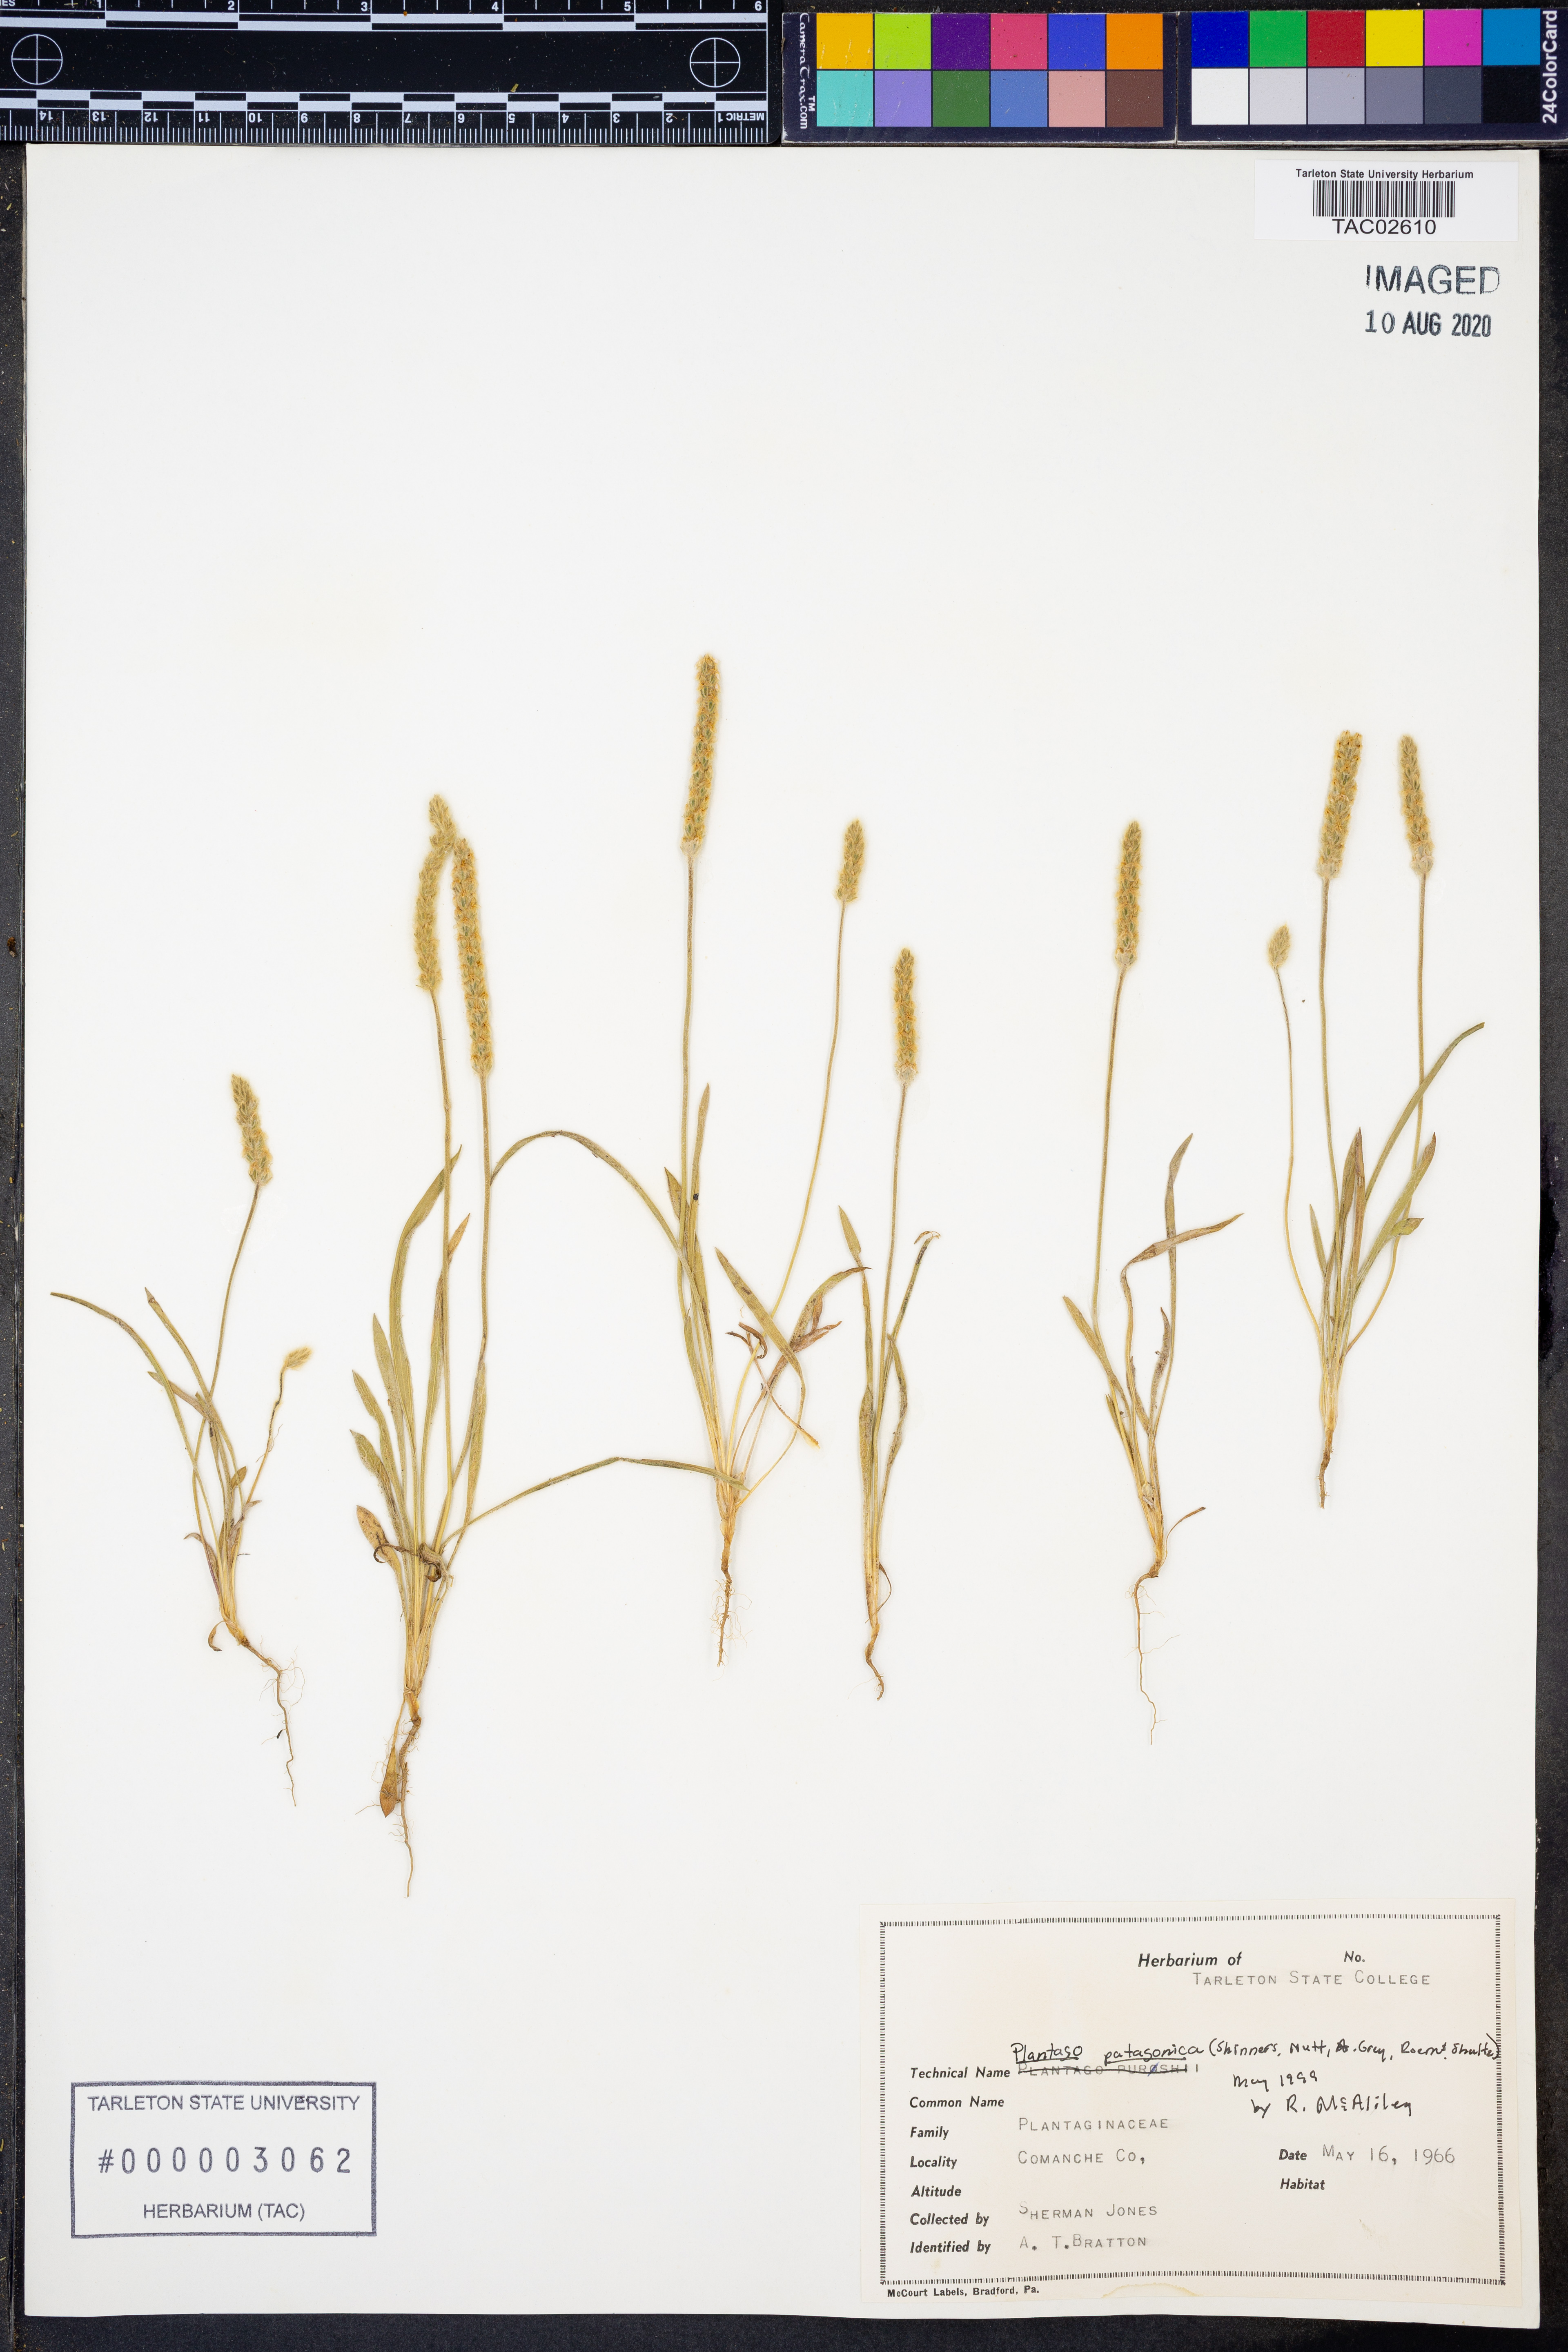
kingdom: Plantae
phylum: Tracheophyta
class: Magnoliopsida
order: Lamiales
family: Plantaginaceae
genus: Plantago
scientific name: Plantago patagonica
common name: Patagonia indian-wheat
